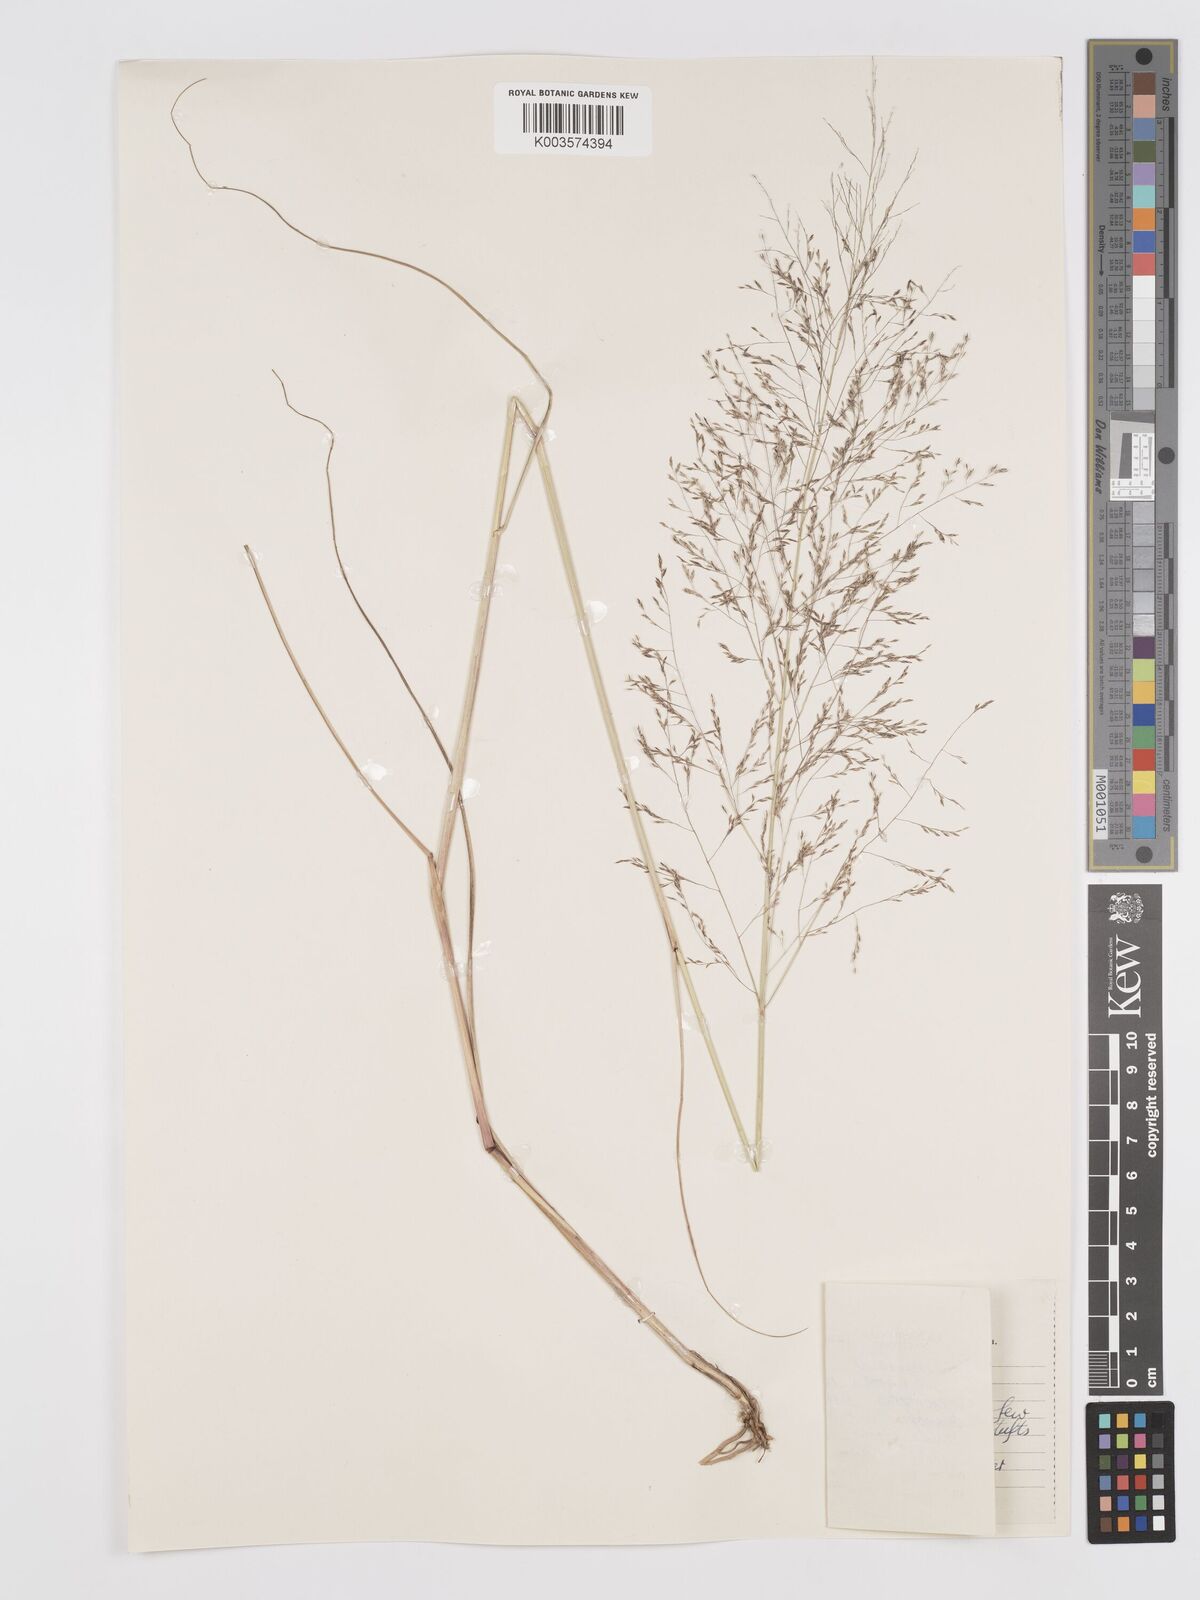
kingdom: Plantae
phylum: Tracheophyta
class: Liliopsida
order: Poales
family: Poaceae
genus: Eragrostis
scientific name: Eragrostis heteromera
